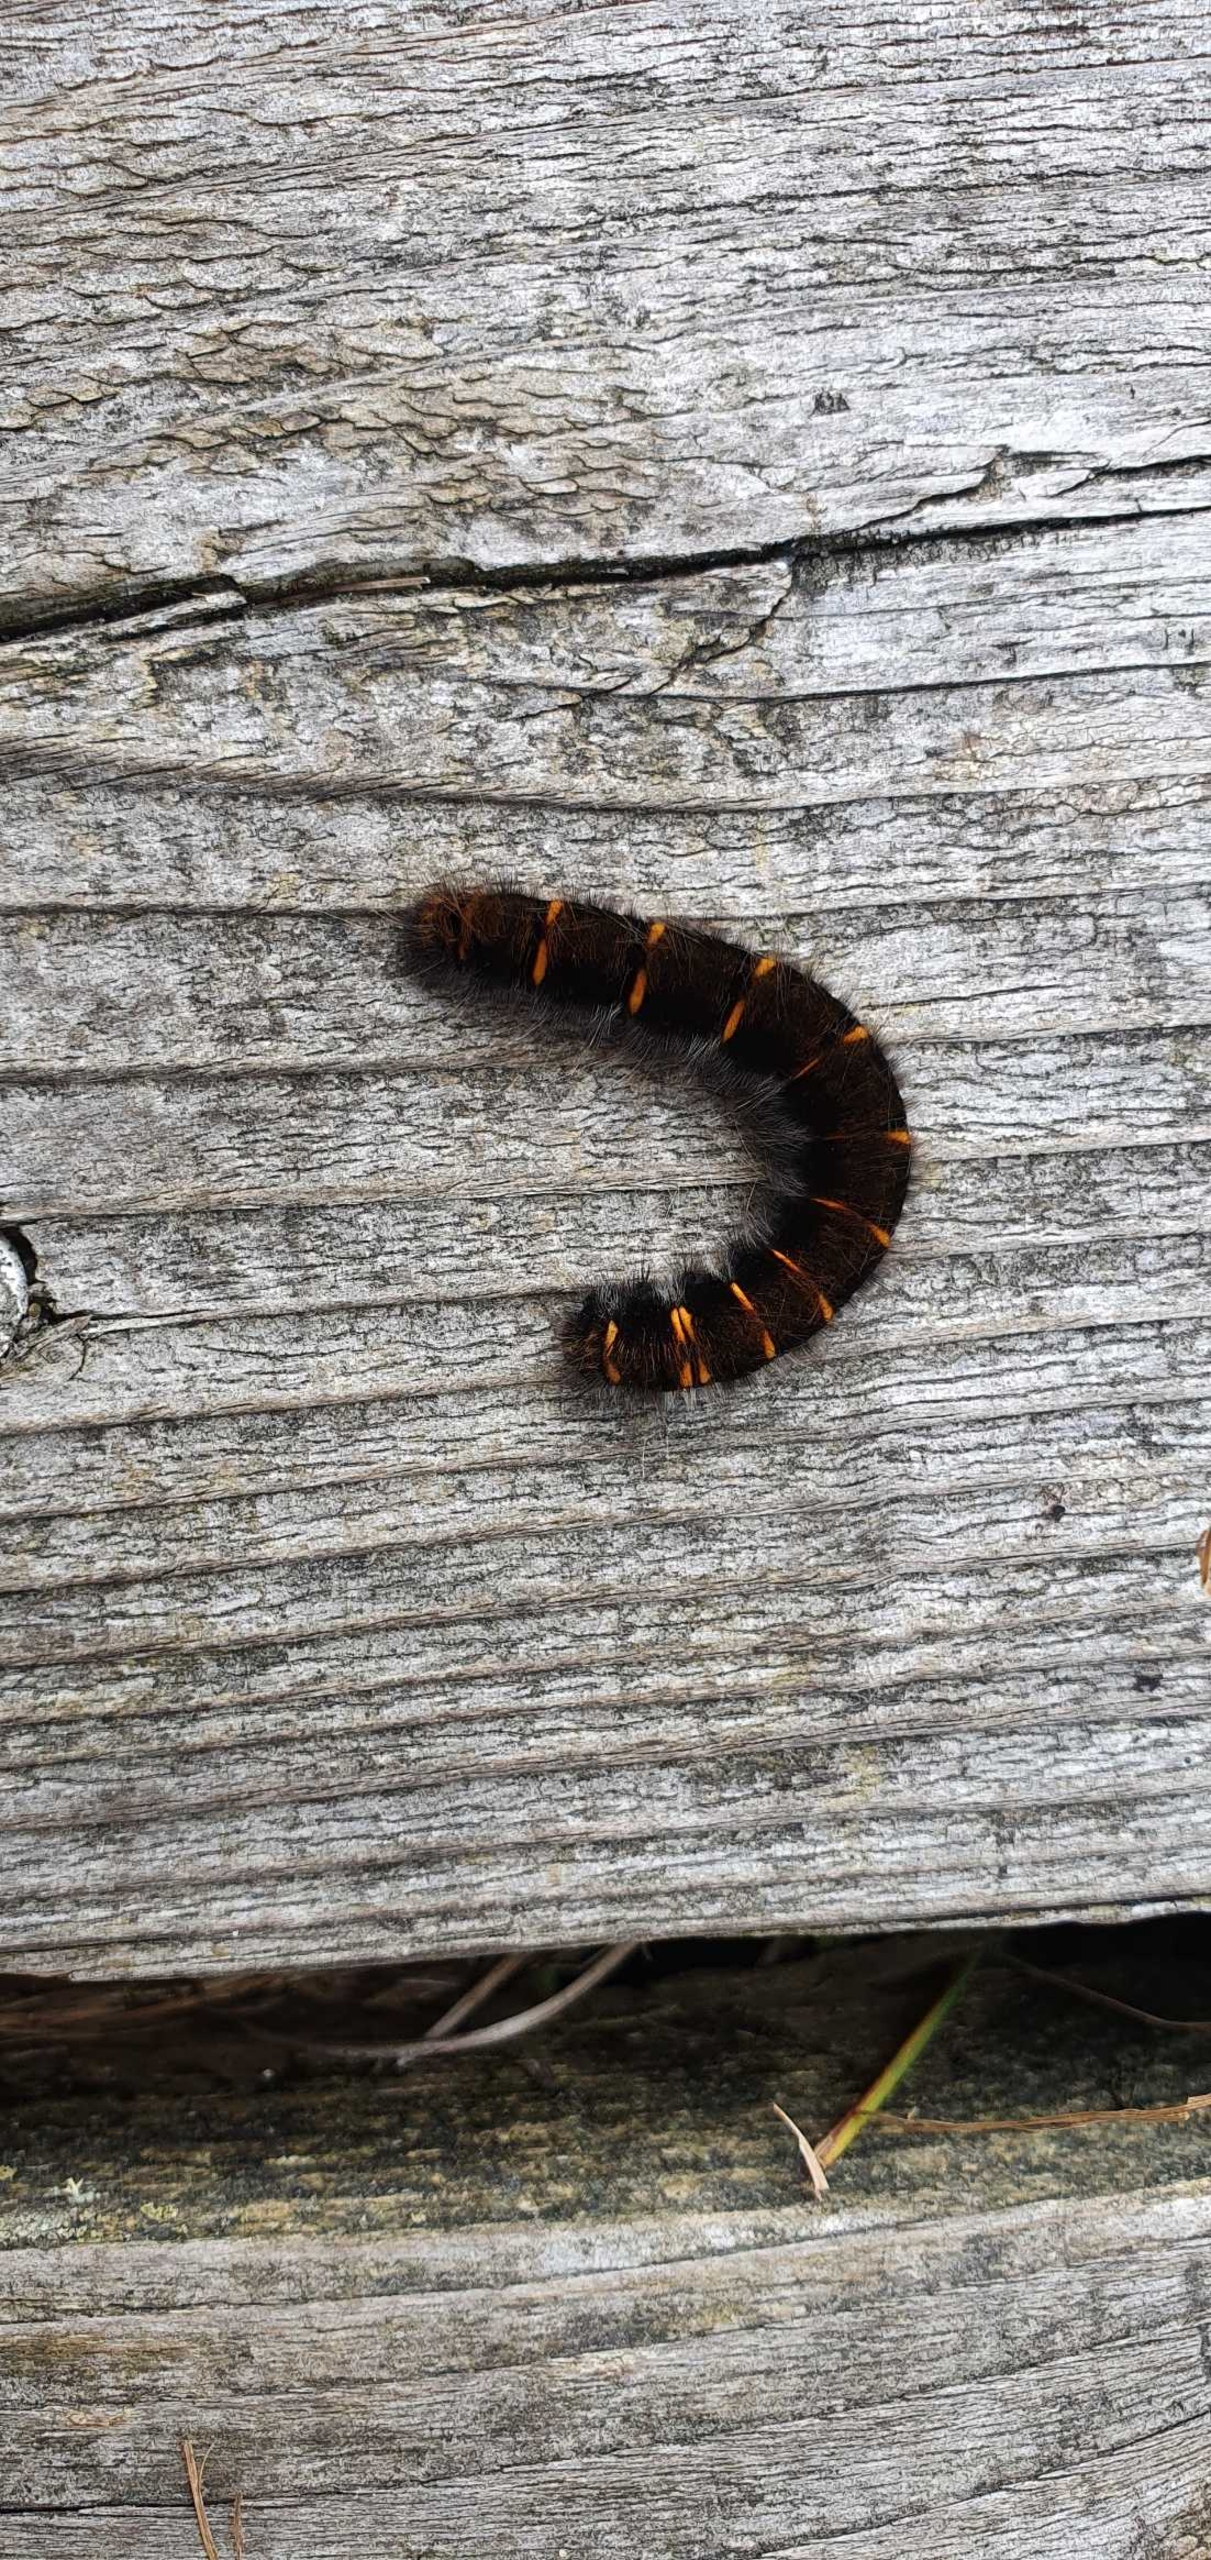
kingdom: Animalia
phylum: Arthropoda
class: Insecta
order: Lepidoptera
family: Lasiocampidae
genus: Macrothylacia
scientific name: Macrothylacia rubi
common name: Brombærspinder
